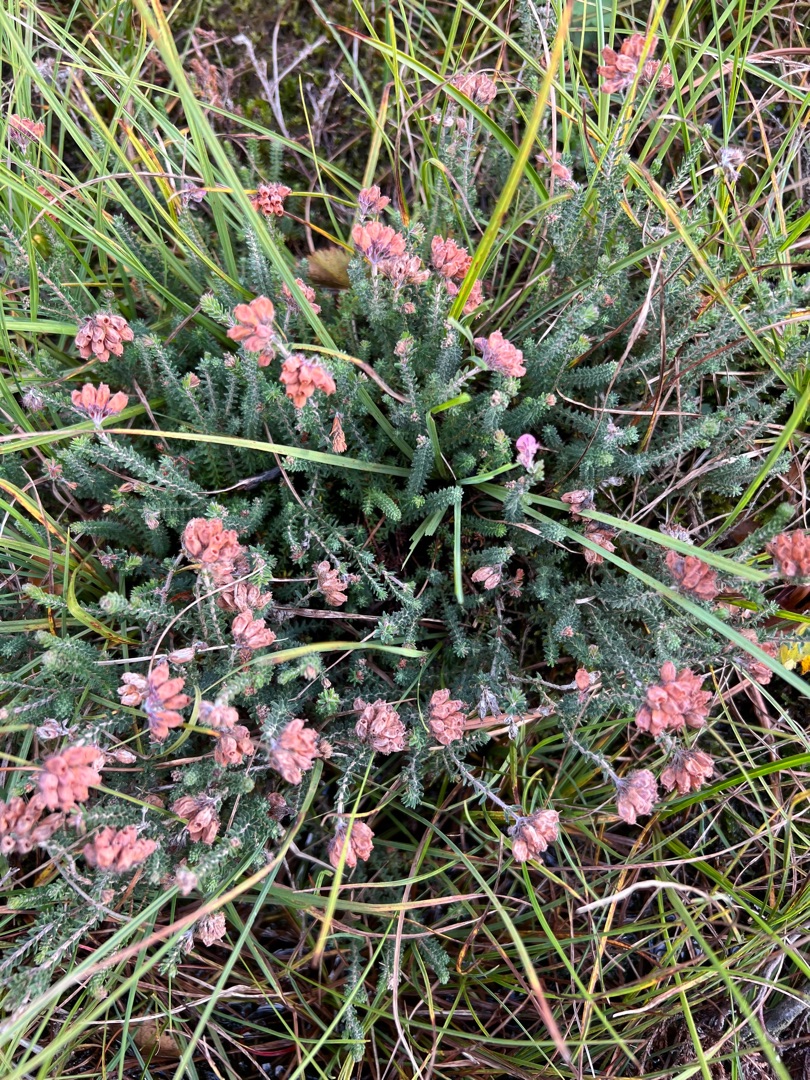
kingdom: Plantae
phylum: Tracheophyta
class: Magnoliopsida
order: Ericales
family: Ericaceae
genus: Erica
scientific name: Erica tetralix
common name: Klokkelyng
